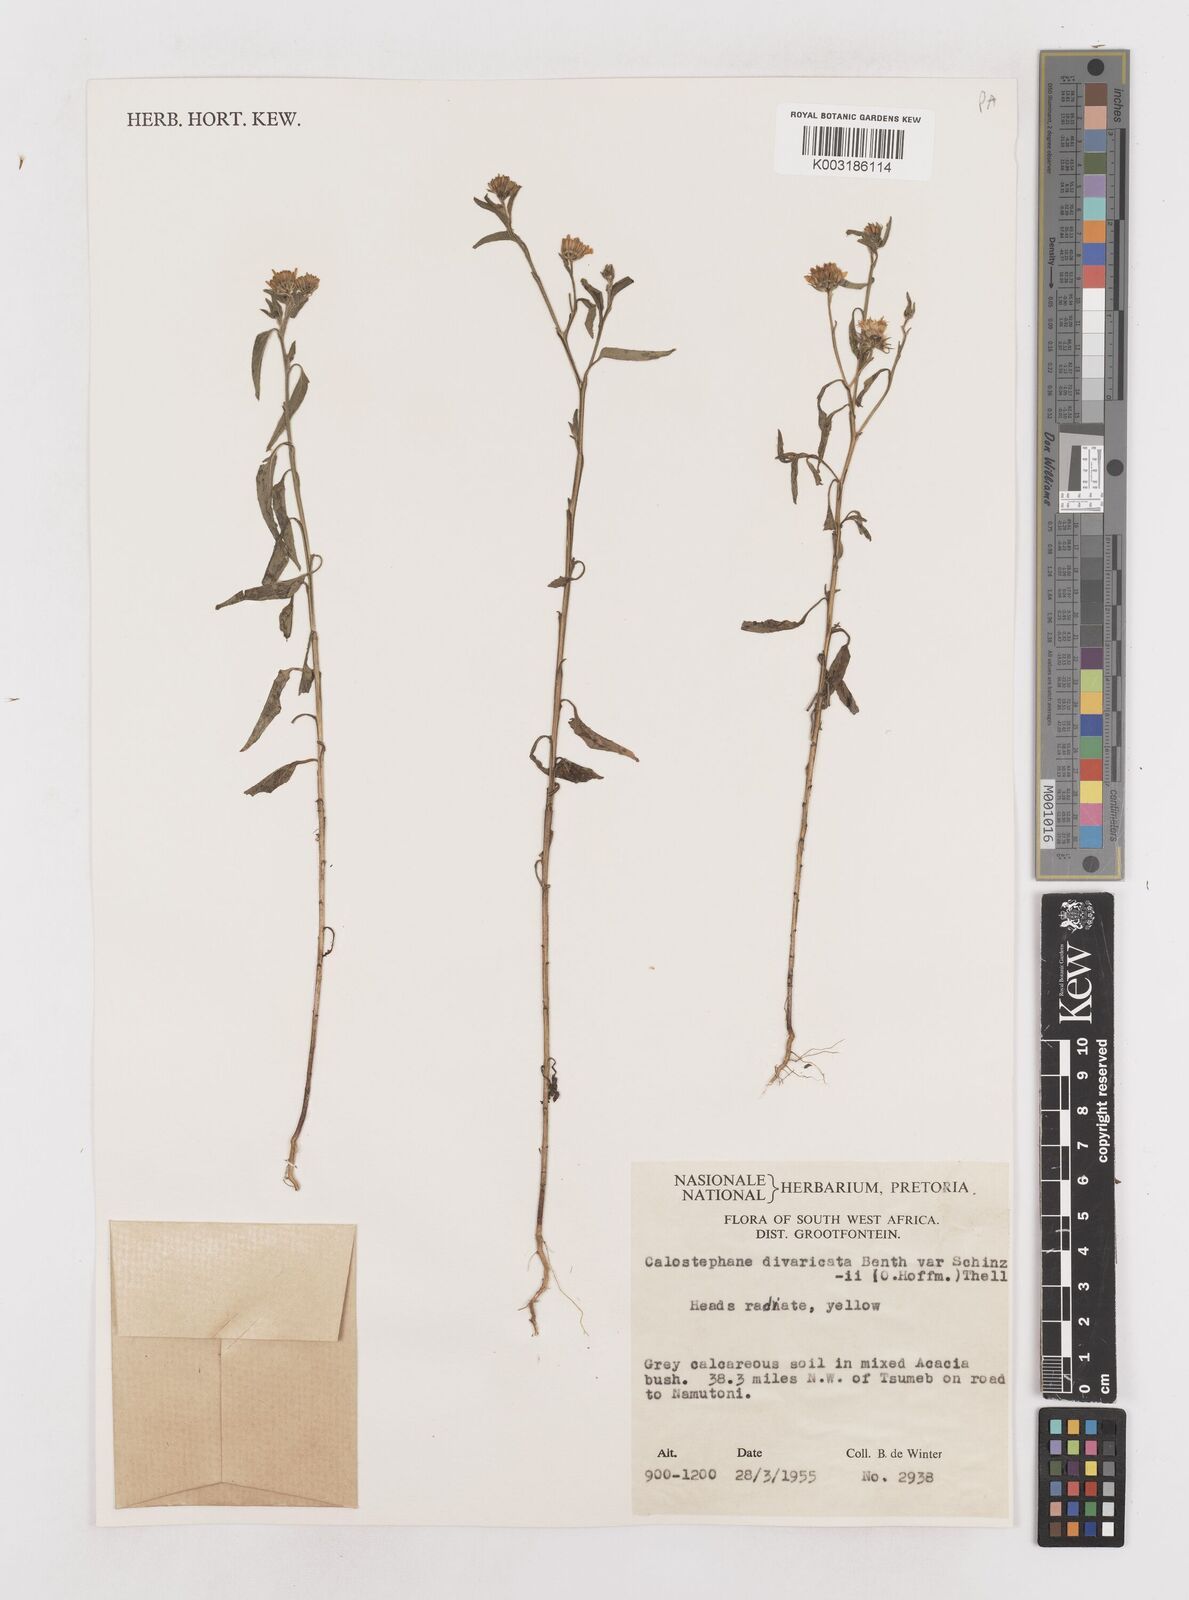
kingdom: Plantae
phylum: Tracheophyta
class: Magnoliopsida
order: Asterales
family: Asteraceae
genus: Calostephane
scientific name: Calostephane divaricata
